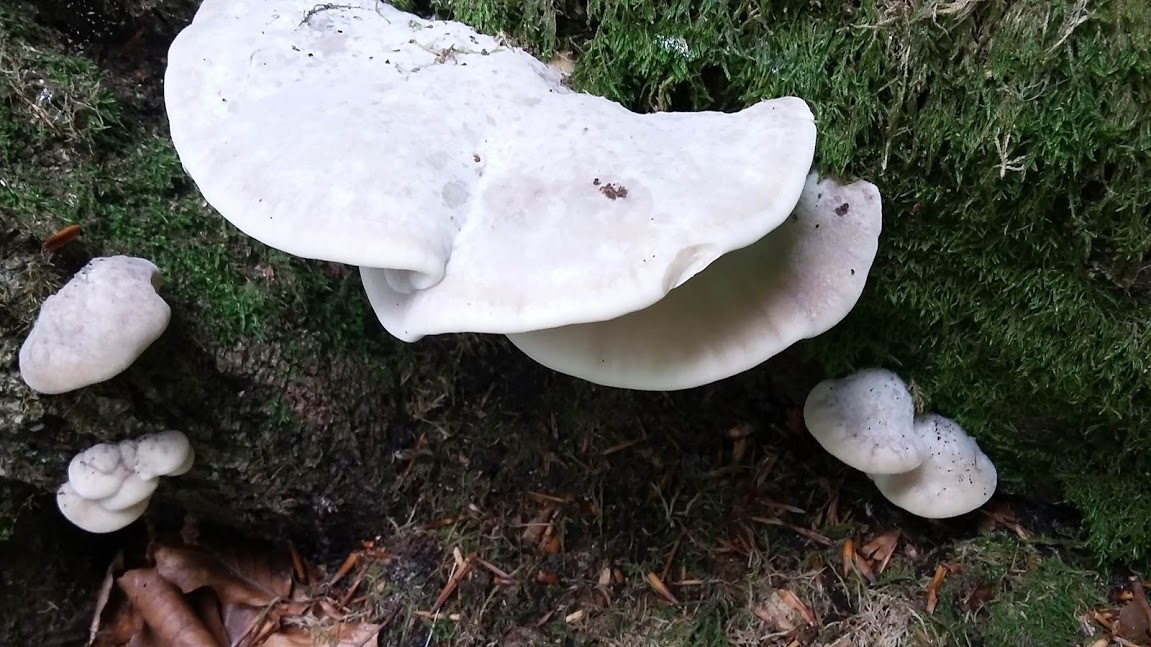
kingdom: Fungi
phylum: Basidiomycota
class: Agaricomycetes
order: Polyporales
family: Incrustoporiaceae
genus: Tyromyces
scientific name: Tyromyces chioneus
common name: stor blødporesvamp
